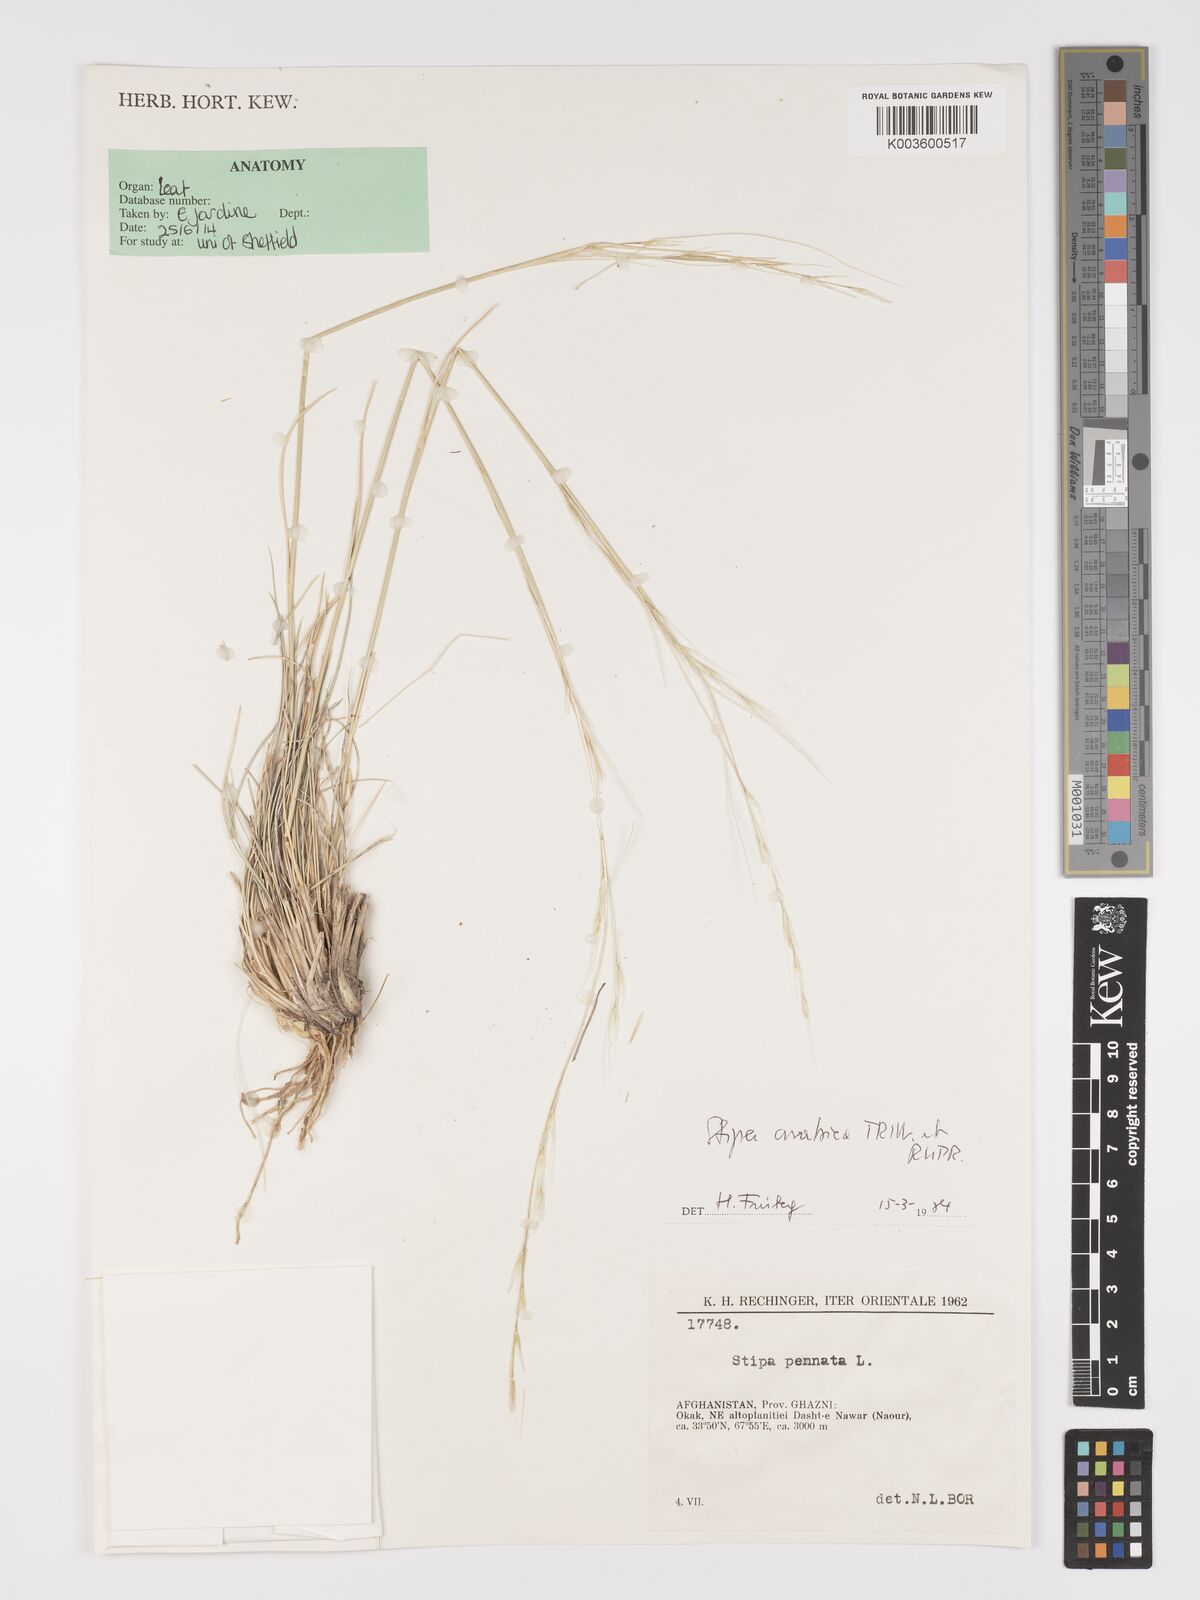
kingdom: Plantae
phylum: Tracheophyta
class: Liliopsida
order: Poales
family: Poaceae
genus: Stipa
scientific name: Stipa arabica
